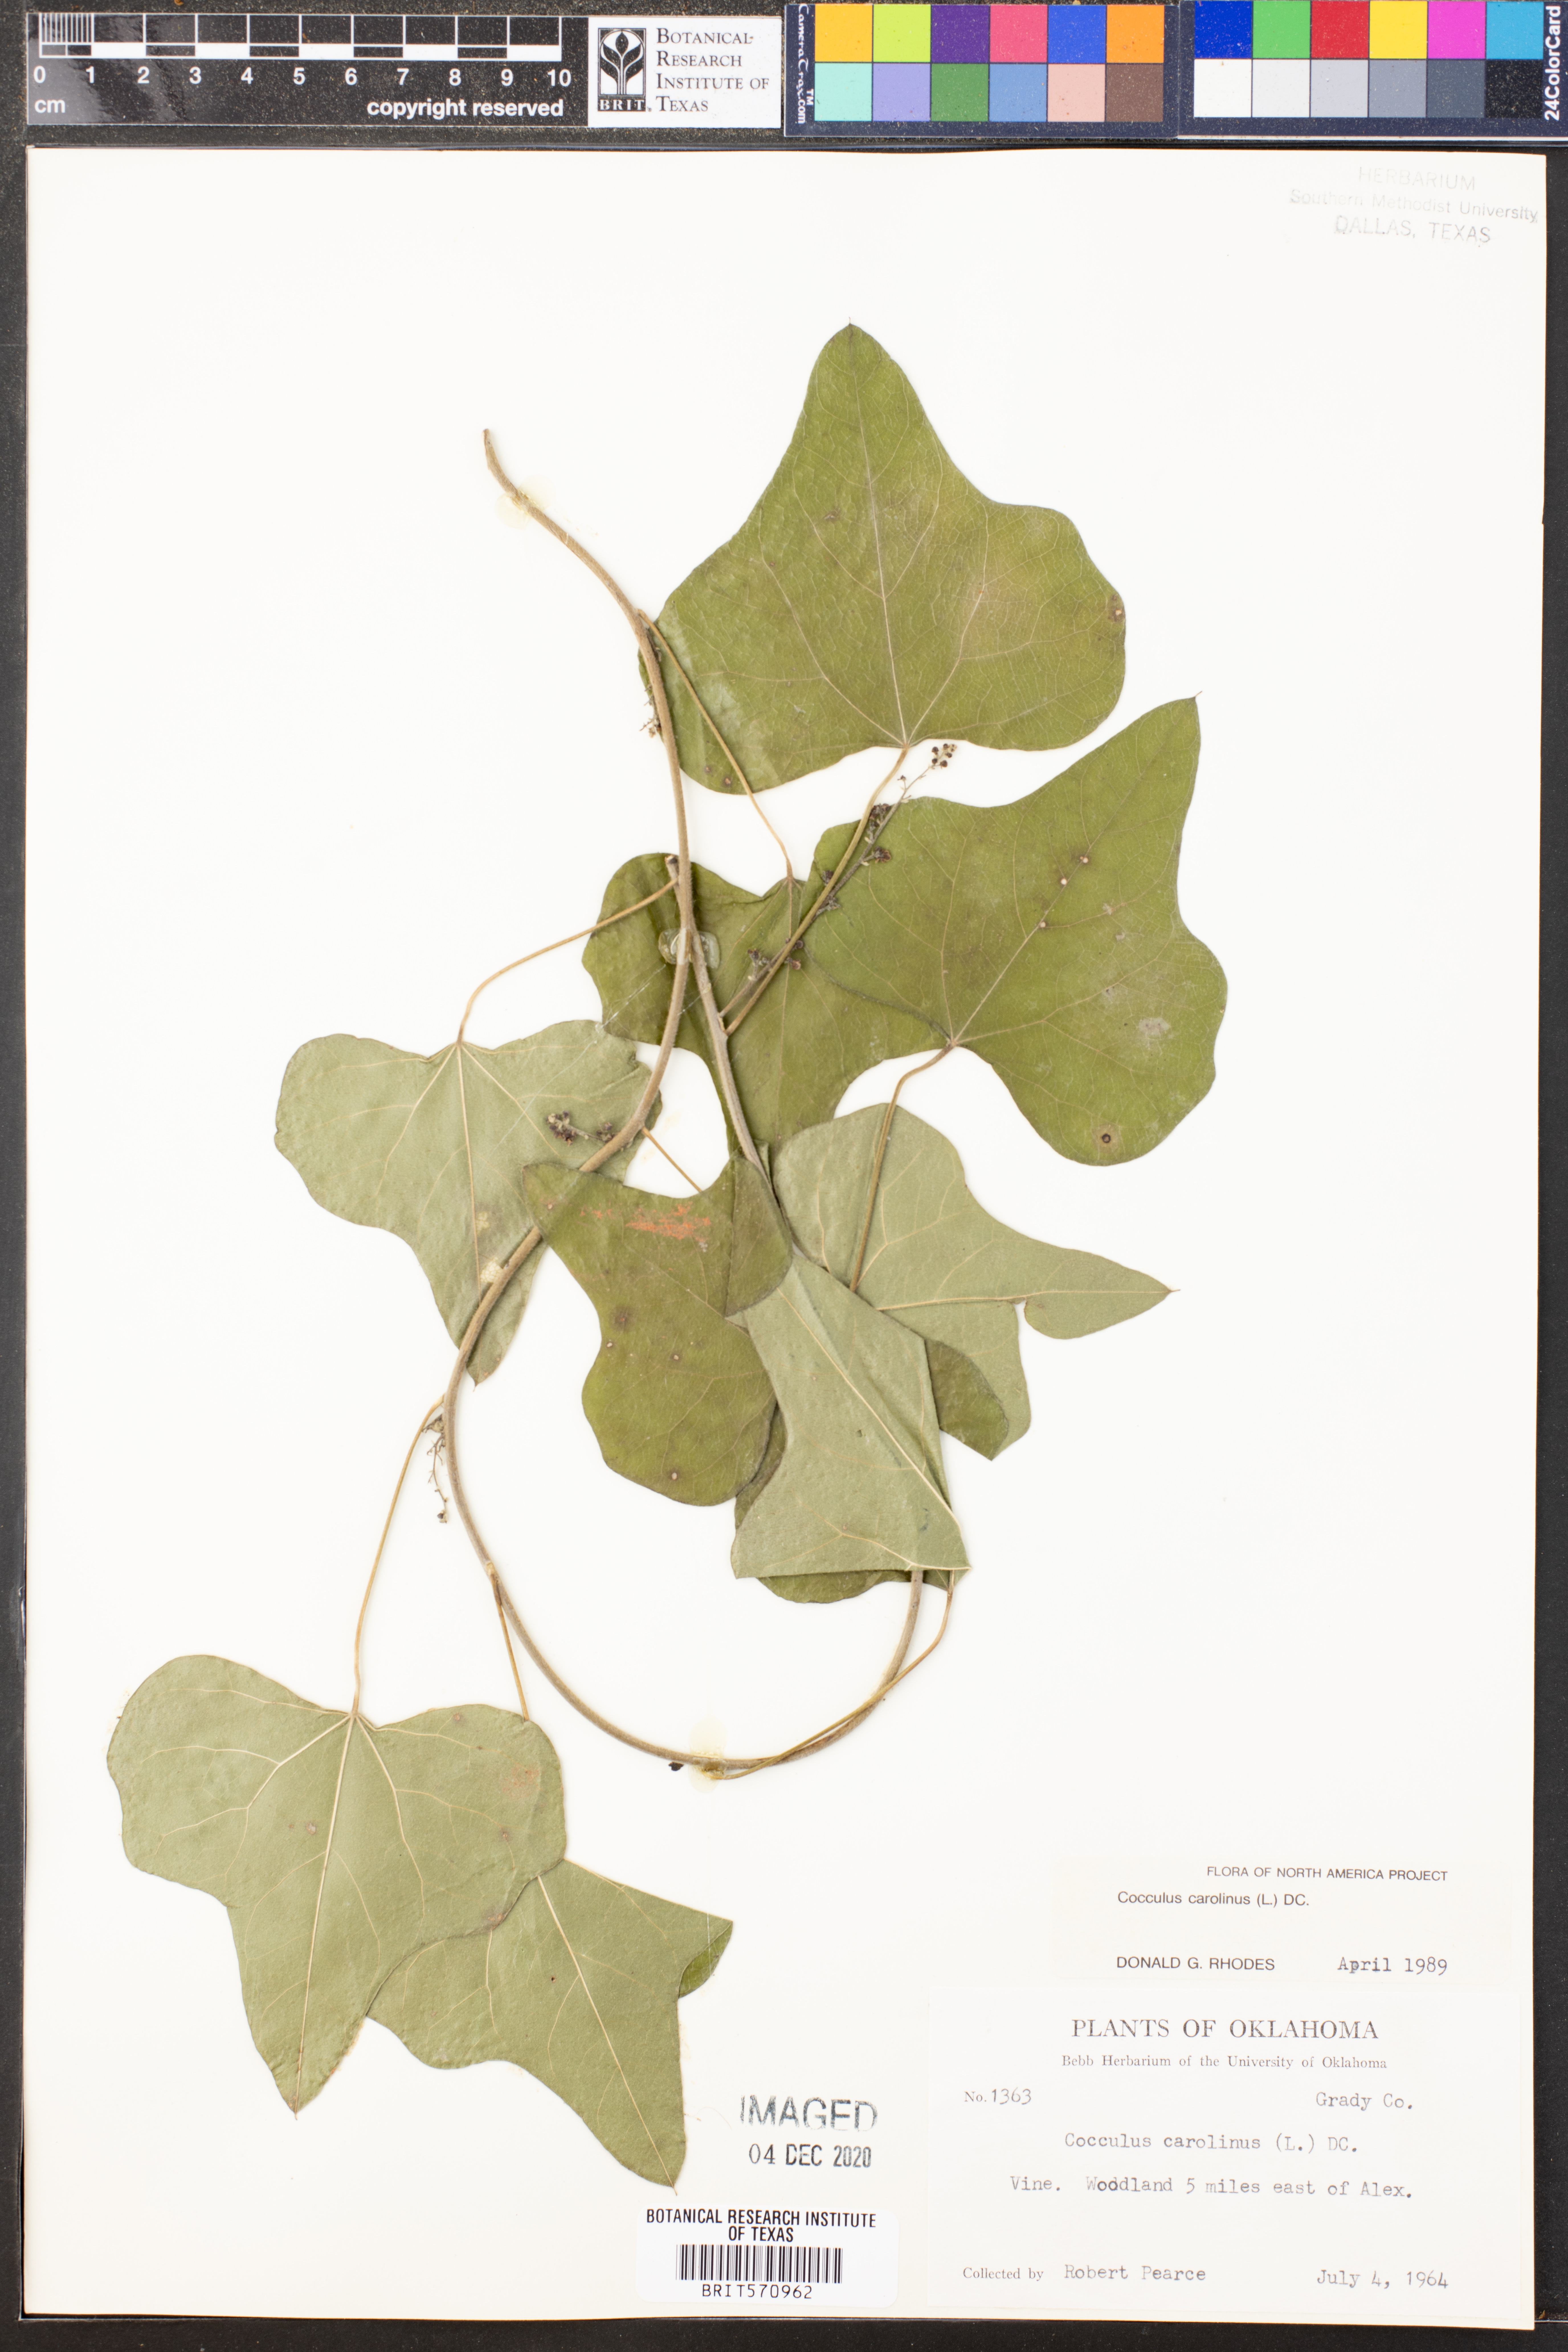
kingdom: Plantae
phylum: Tracheophyta
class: Magnoliopsida
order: Ranunculales
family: Menispermaceae
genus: Cocculus
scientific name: Cocculus carolinus
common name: Carolina moonseed
